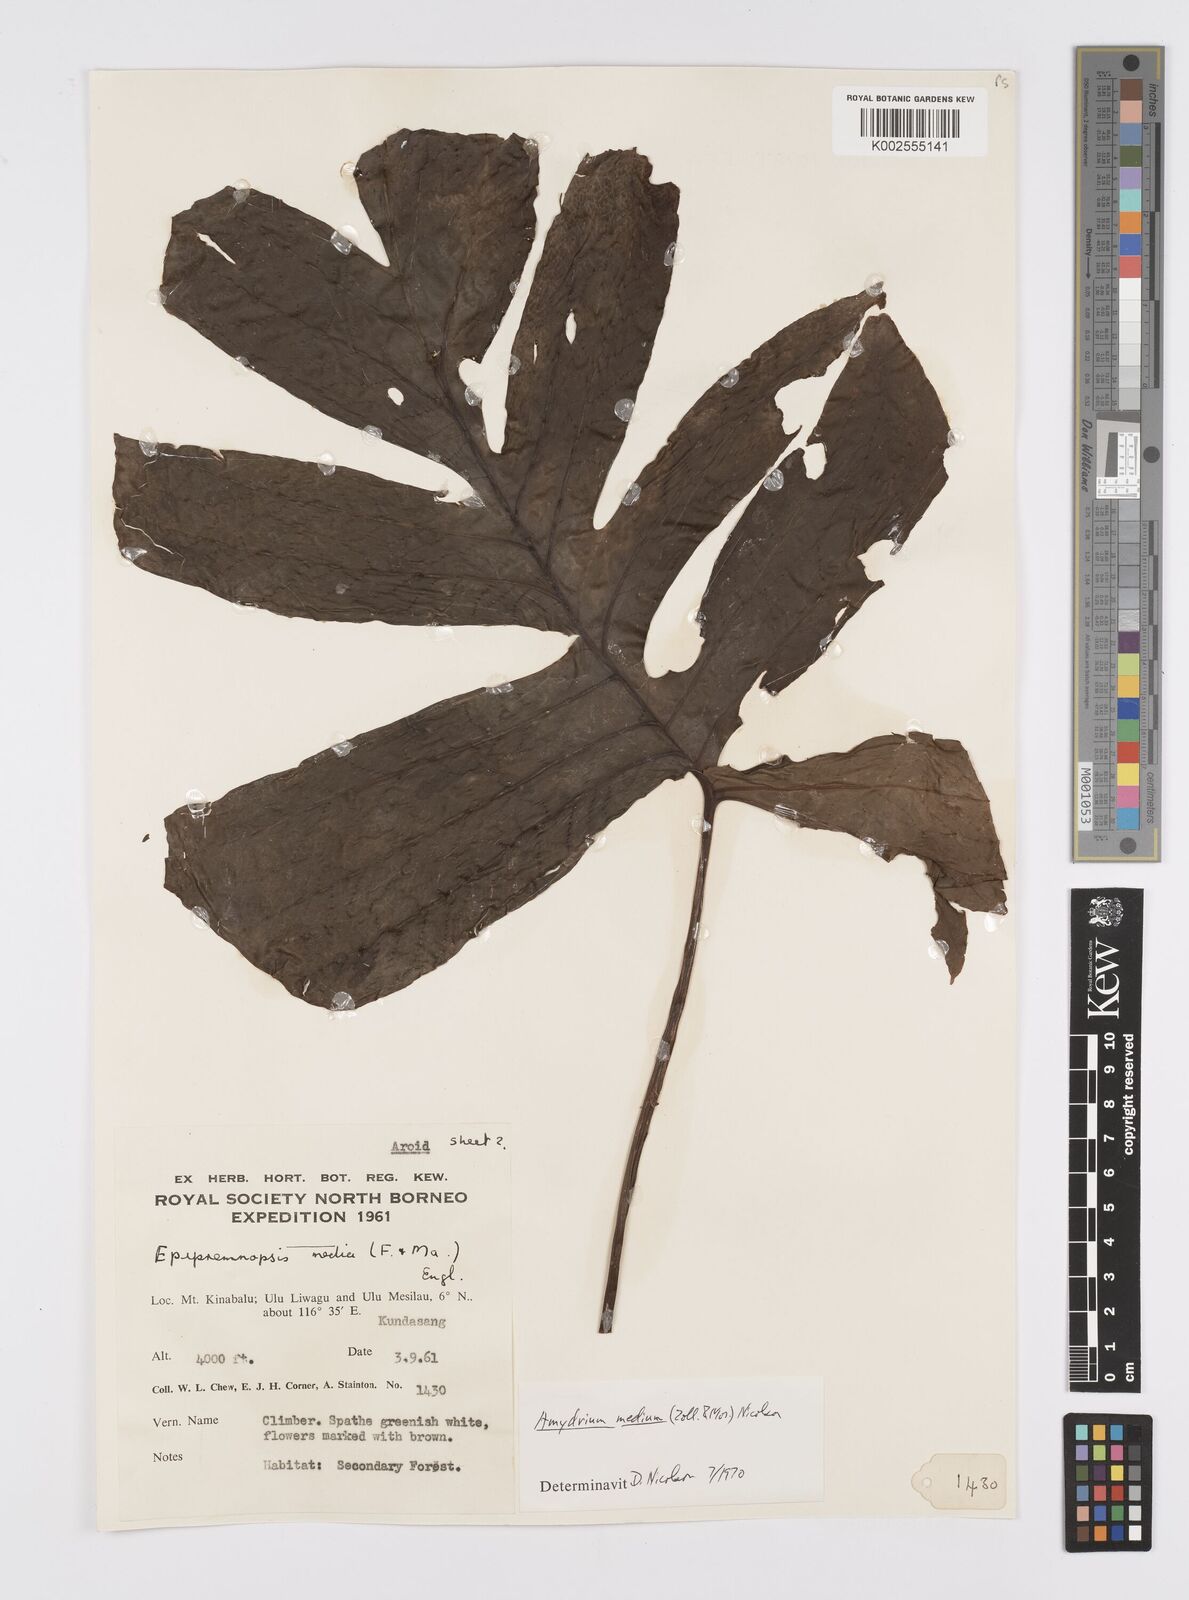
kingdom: Plantae
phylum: Tracheophyta
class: Liliopsida
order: Alismatales
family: Araceae
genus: Amydrium
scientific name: Amydrium medium
